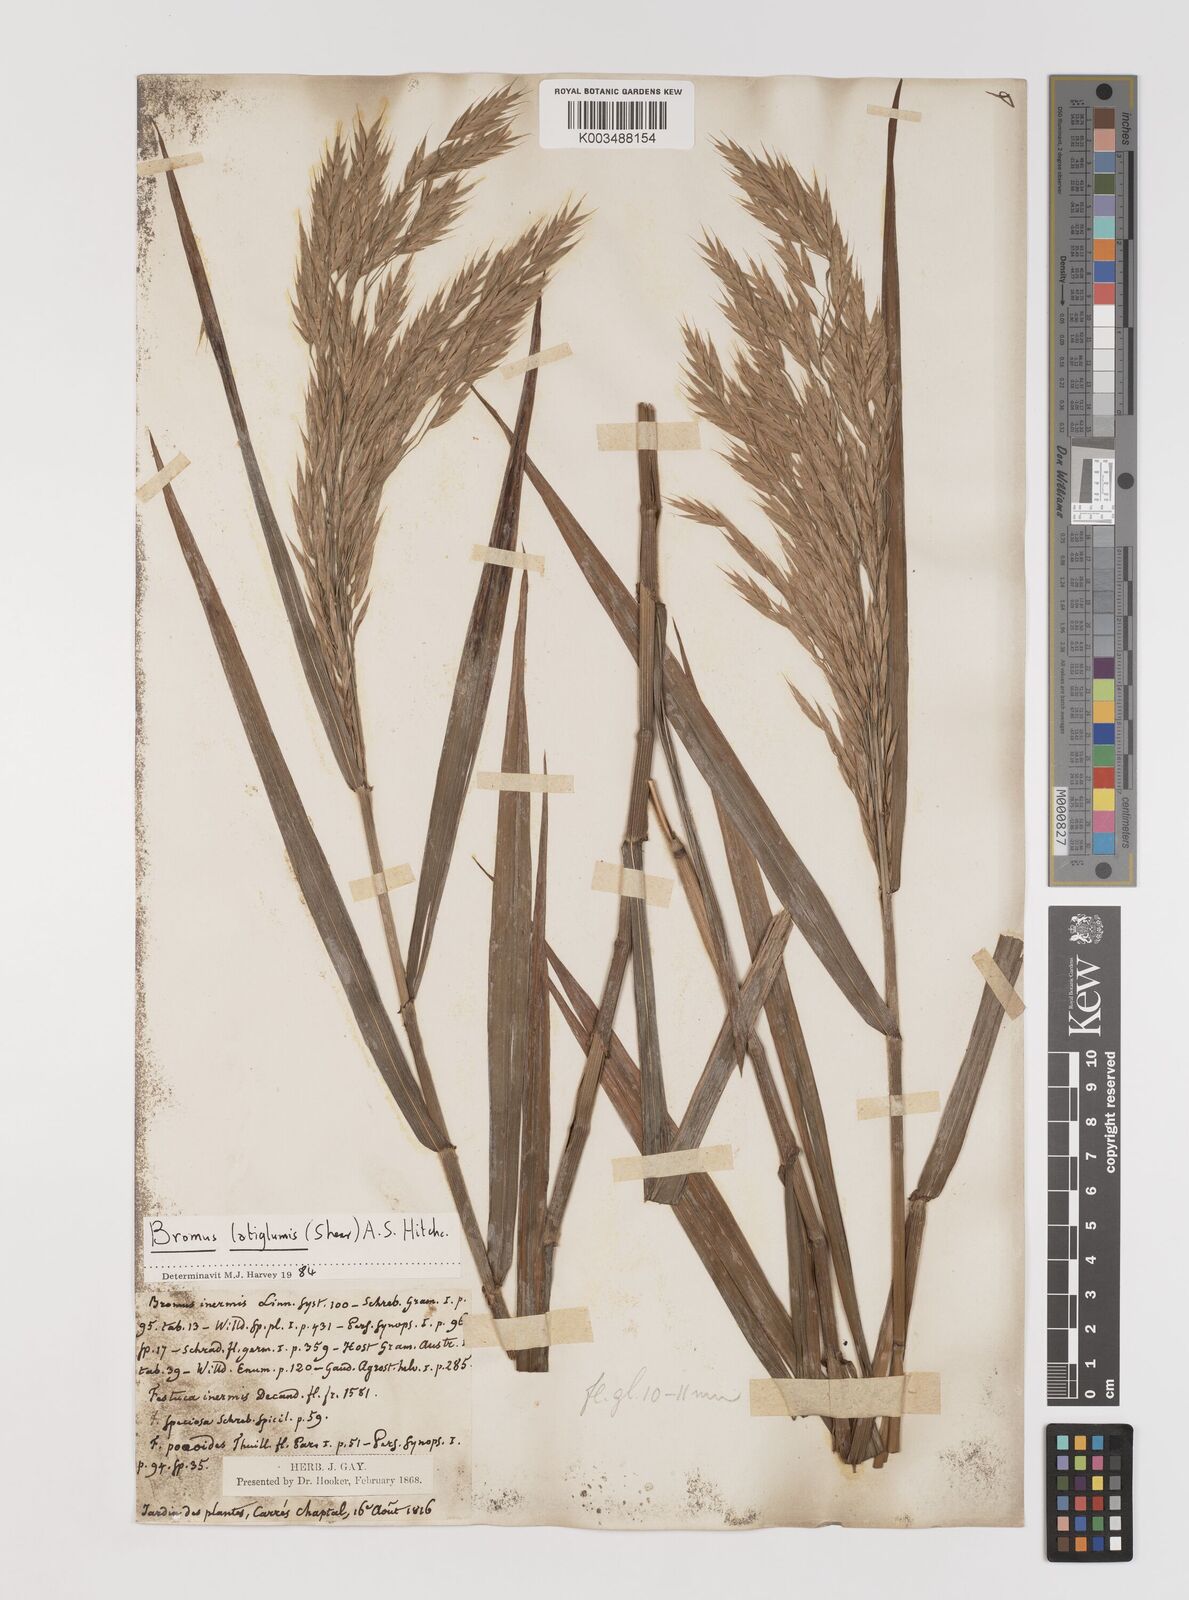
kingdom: Plantae
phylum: Tracheophyta
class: Liliopsida
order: Poales
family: Poaceae
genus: Bromus
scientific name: Bromus latiglumis
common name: Broad-glumed brome
